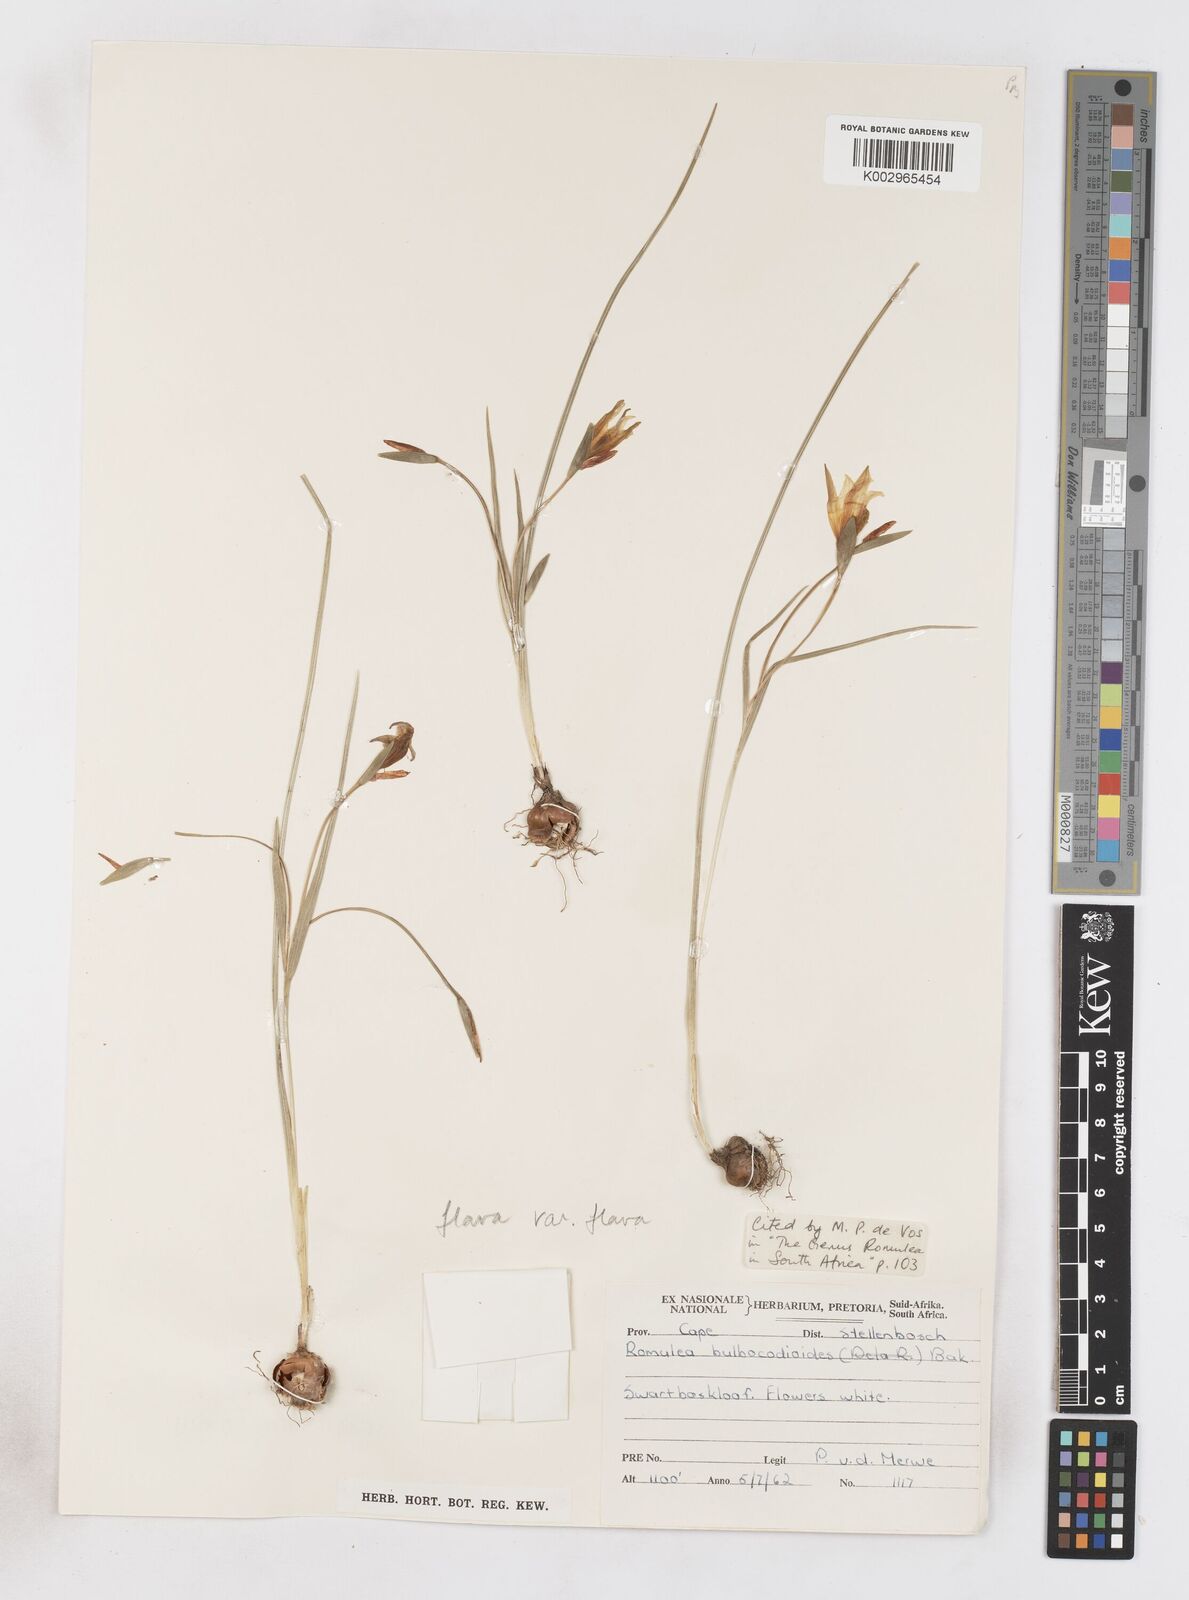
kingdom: Plantae
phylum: Tracheophyta
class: Liliopsida
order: Asparagales
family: Iridaceae
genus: Romulea
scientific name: Romulea flava
